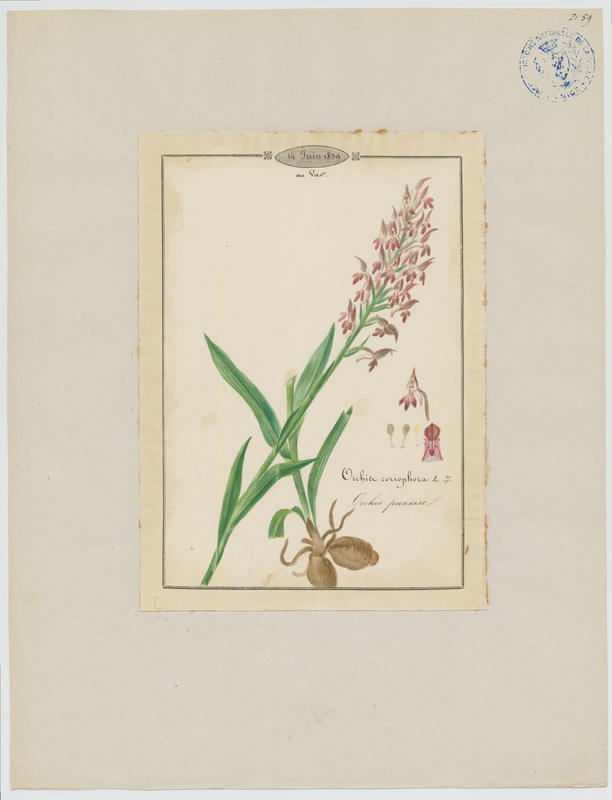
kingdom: Plantae
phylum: Tracheophyta
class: Liliopsida
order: Asparagales
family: Orchidaceae
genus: Anacamptis
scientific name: Anacamptis coriophora
